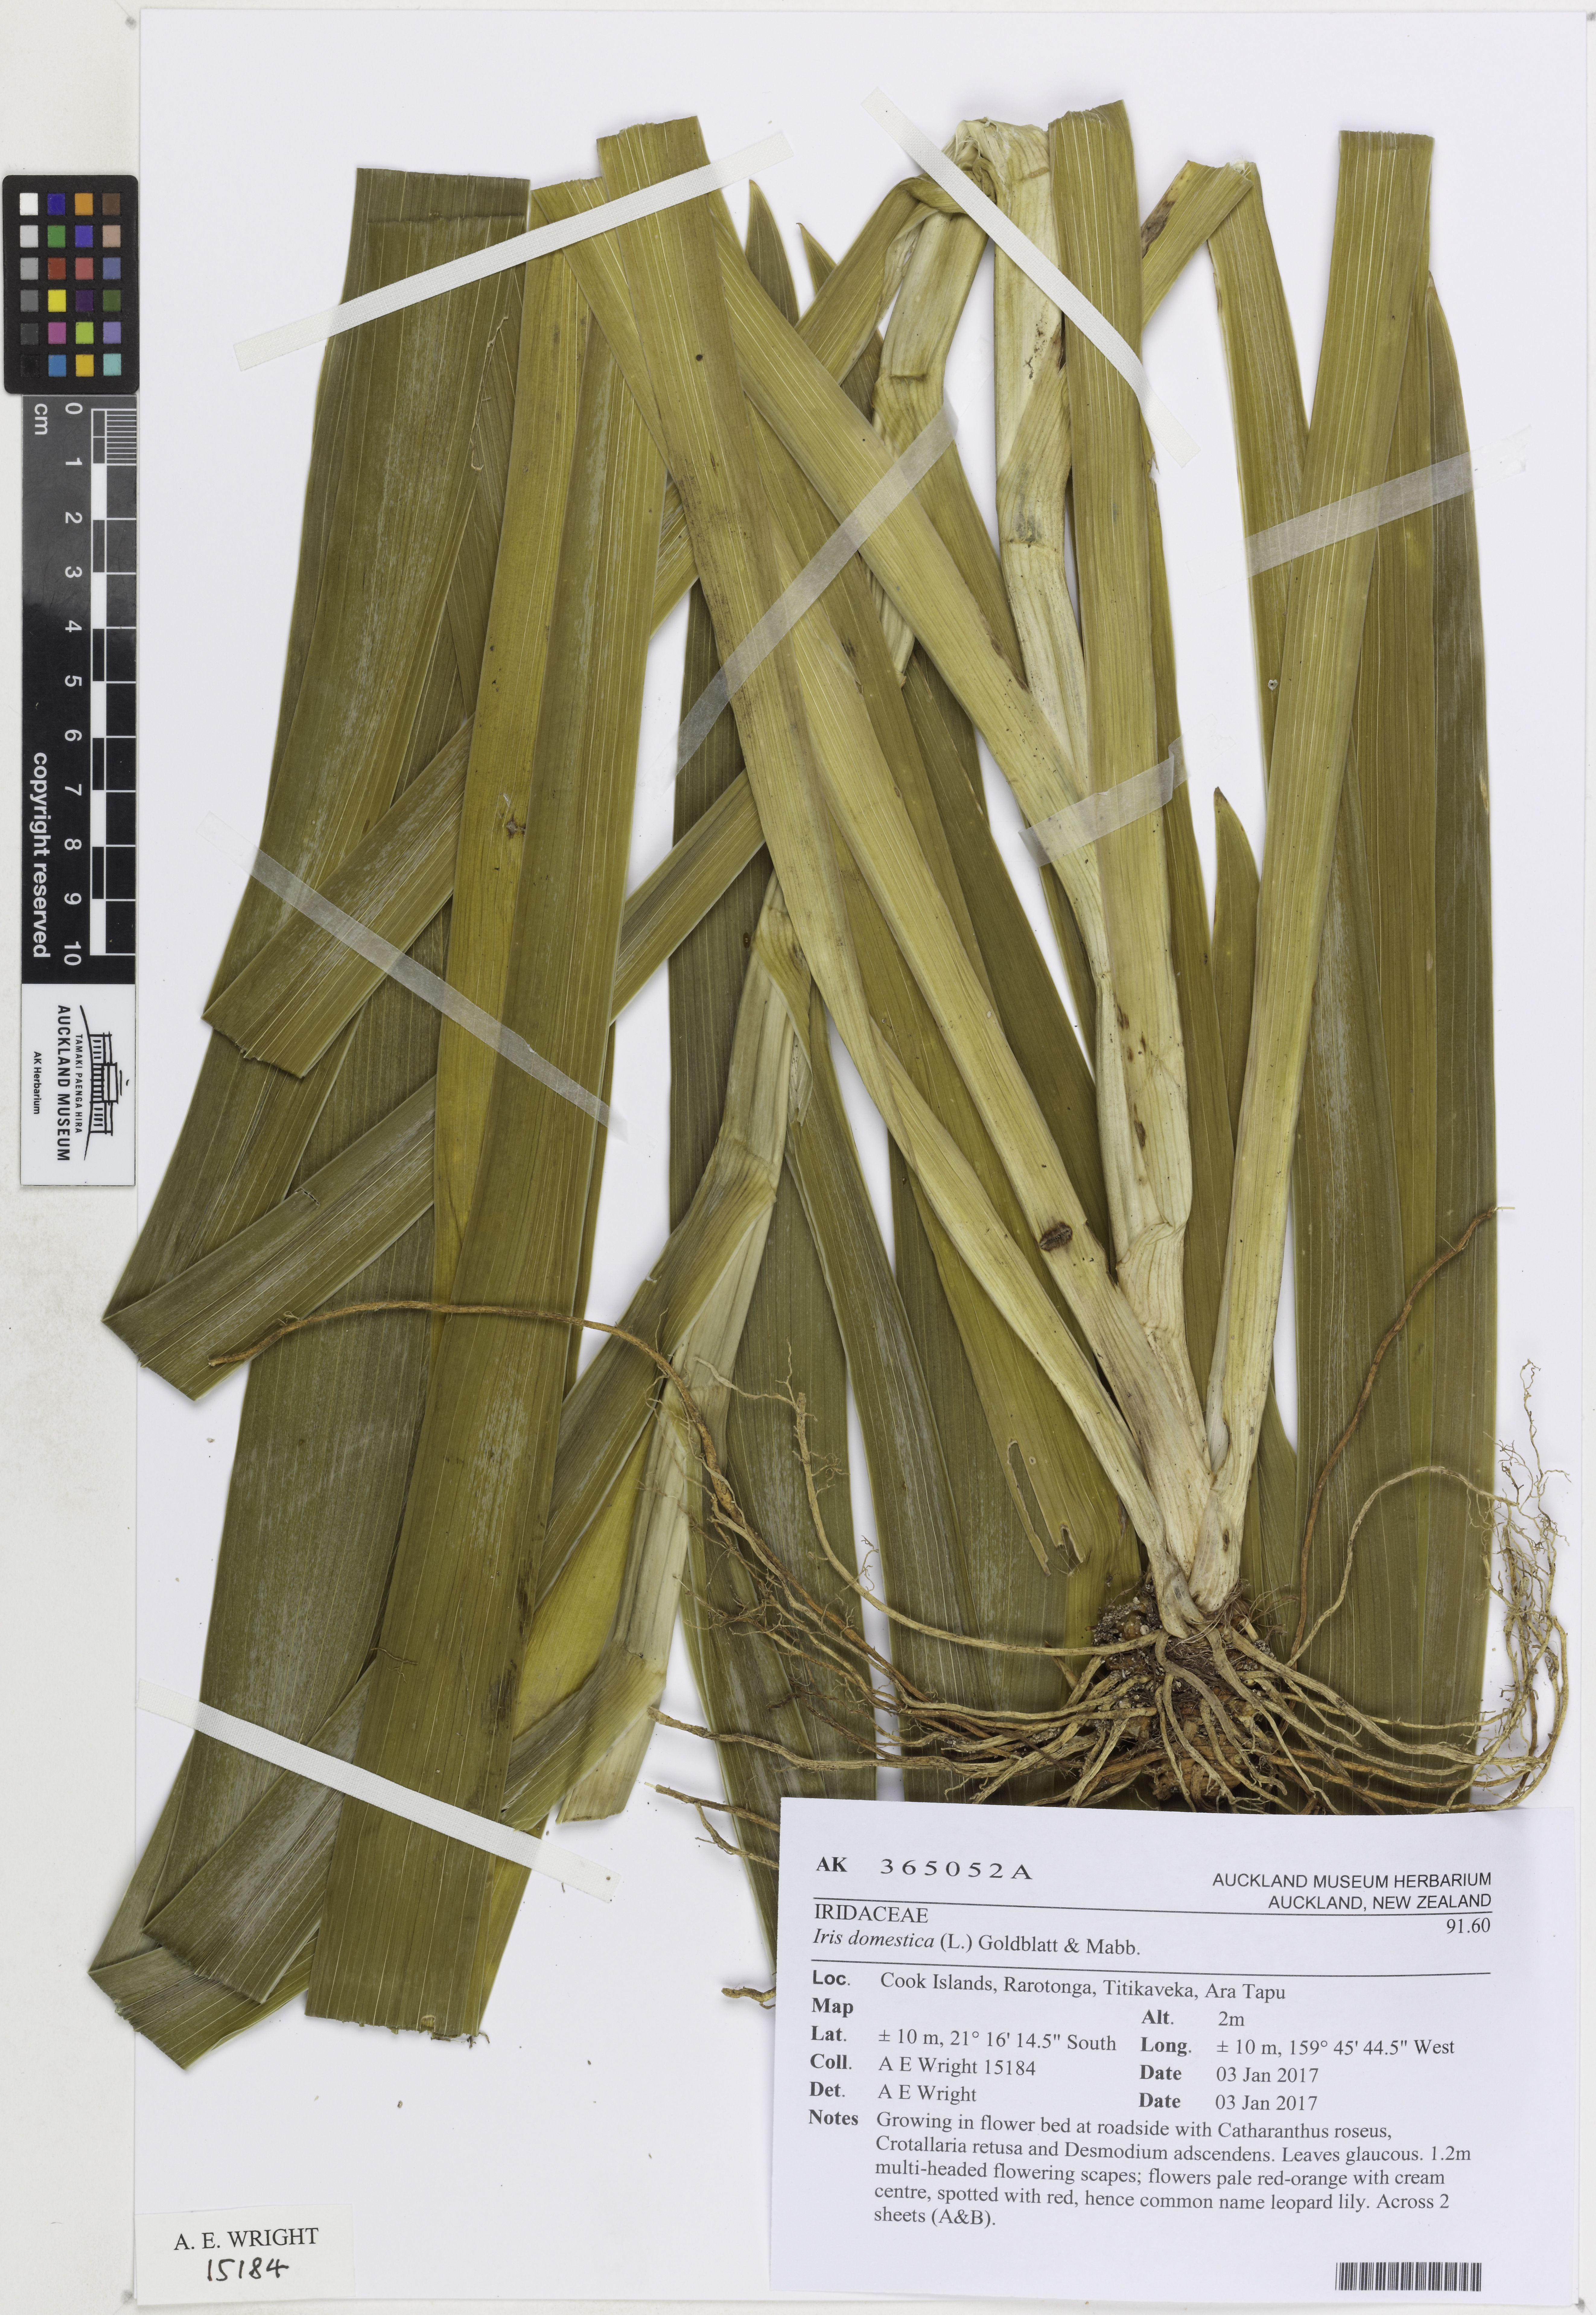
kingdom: Plantae
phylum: Tracheophyta
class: Liliopsida
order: Asparagales
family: Iridaceae
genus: Iris
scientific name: Iris domestica
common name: Belamcanda
